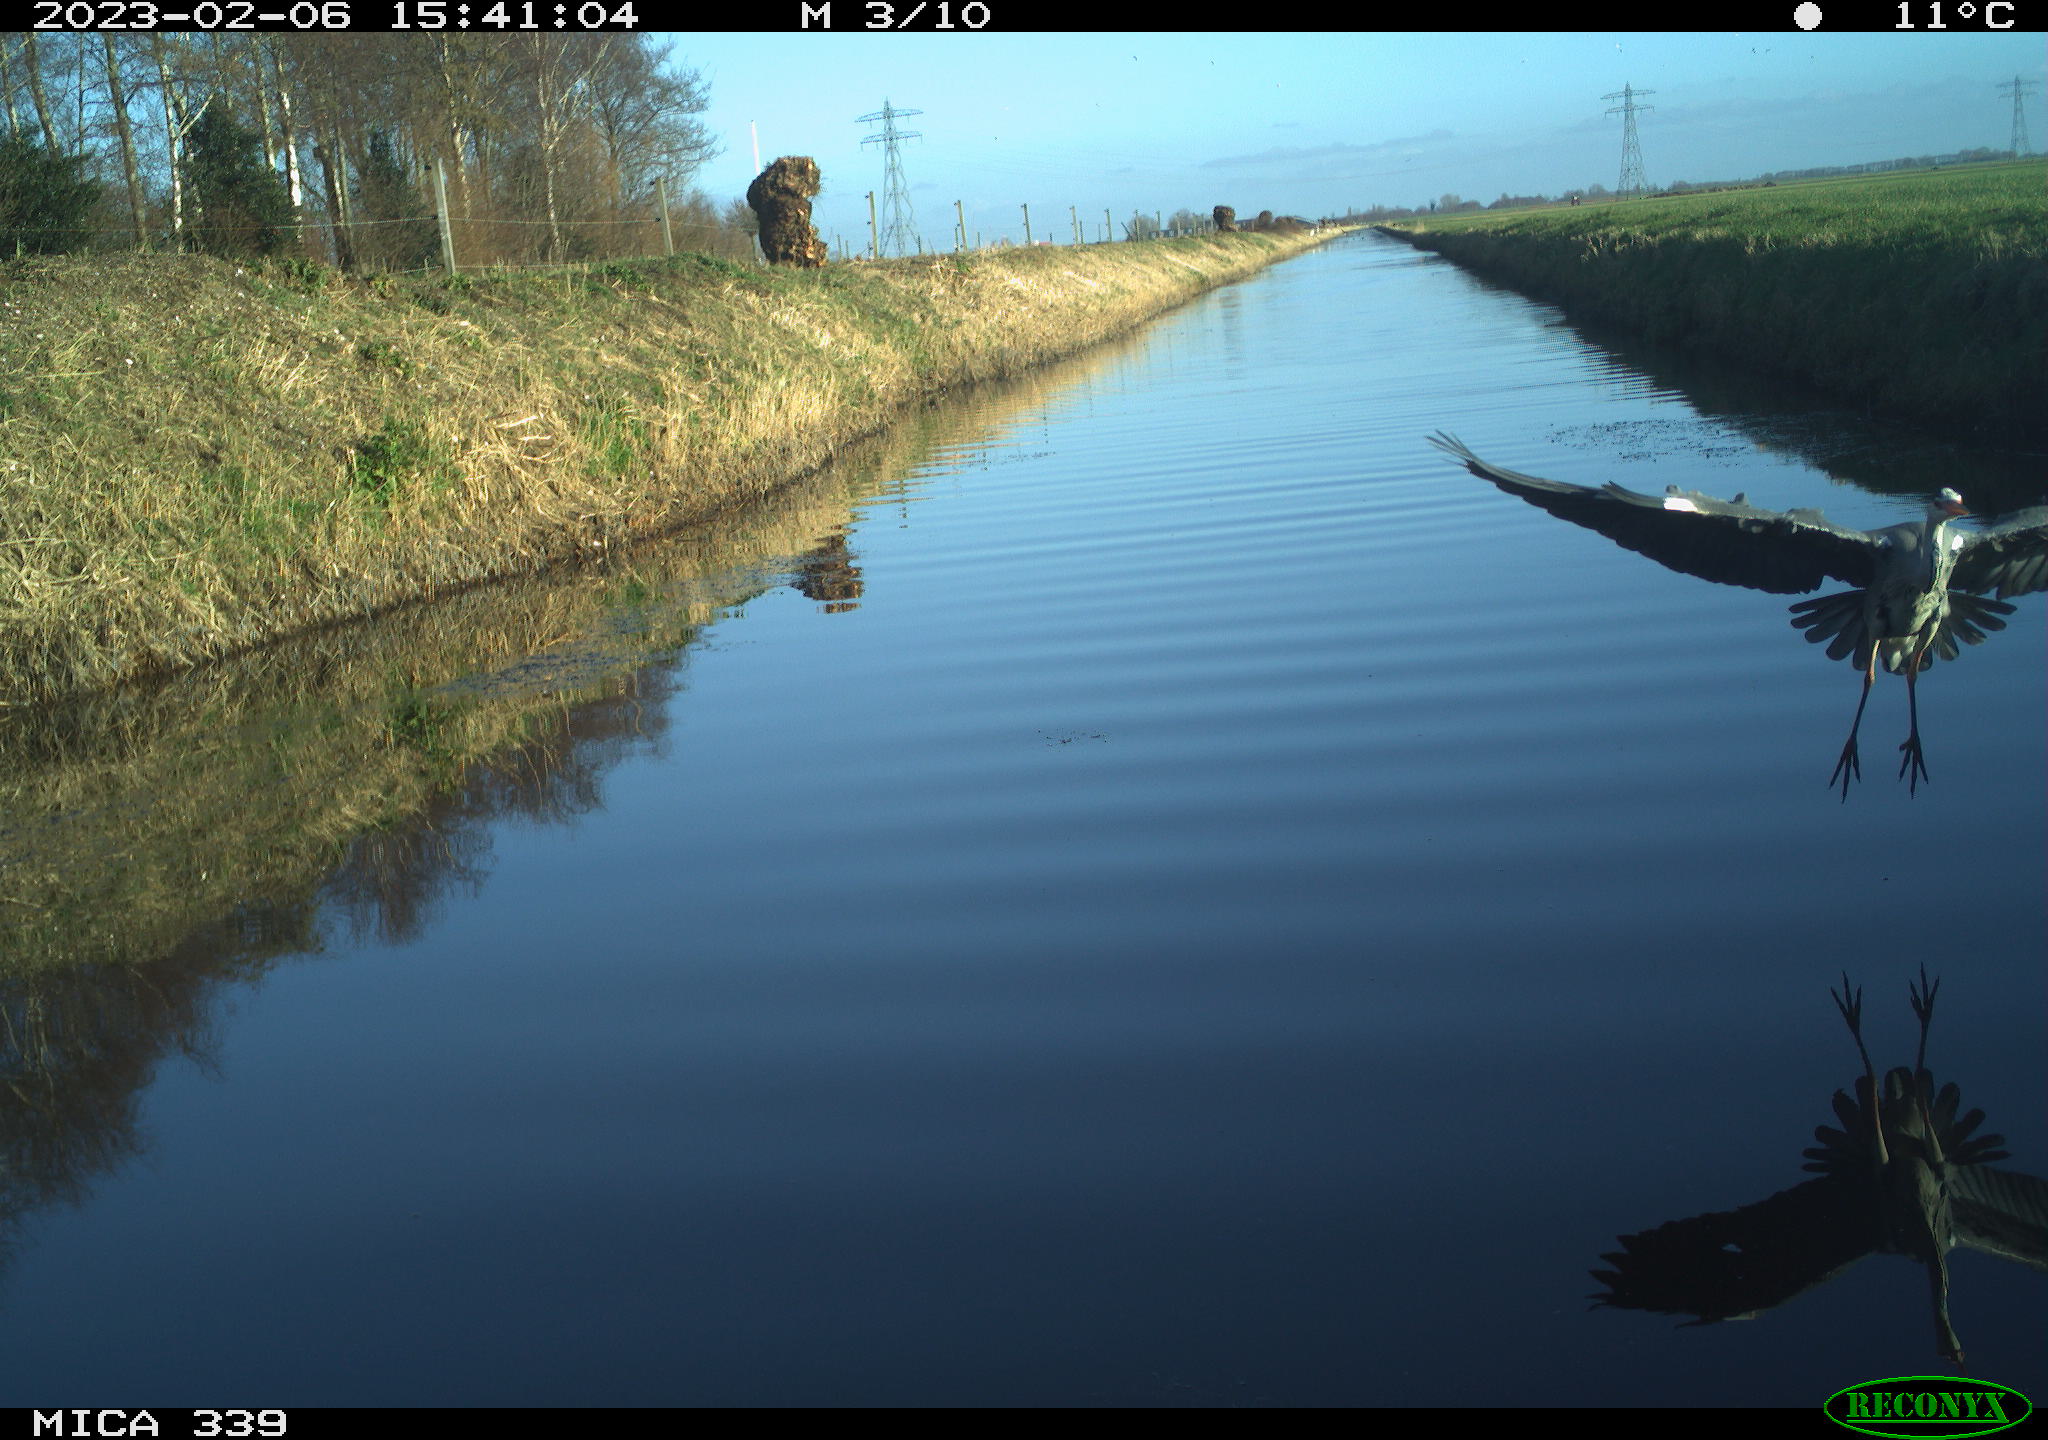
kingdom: Animalia
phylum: Chordata
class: Aves
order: Pelecaniformes
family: Ardeidae
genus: Ardea
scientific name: Ardea cinerea
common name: Grey heron
